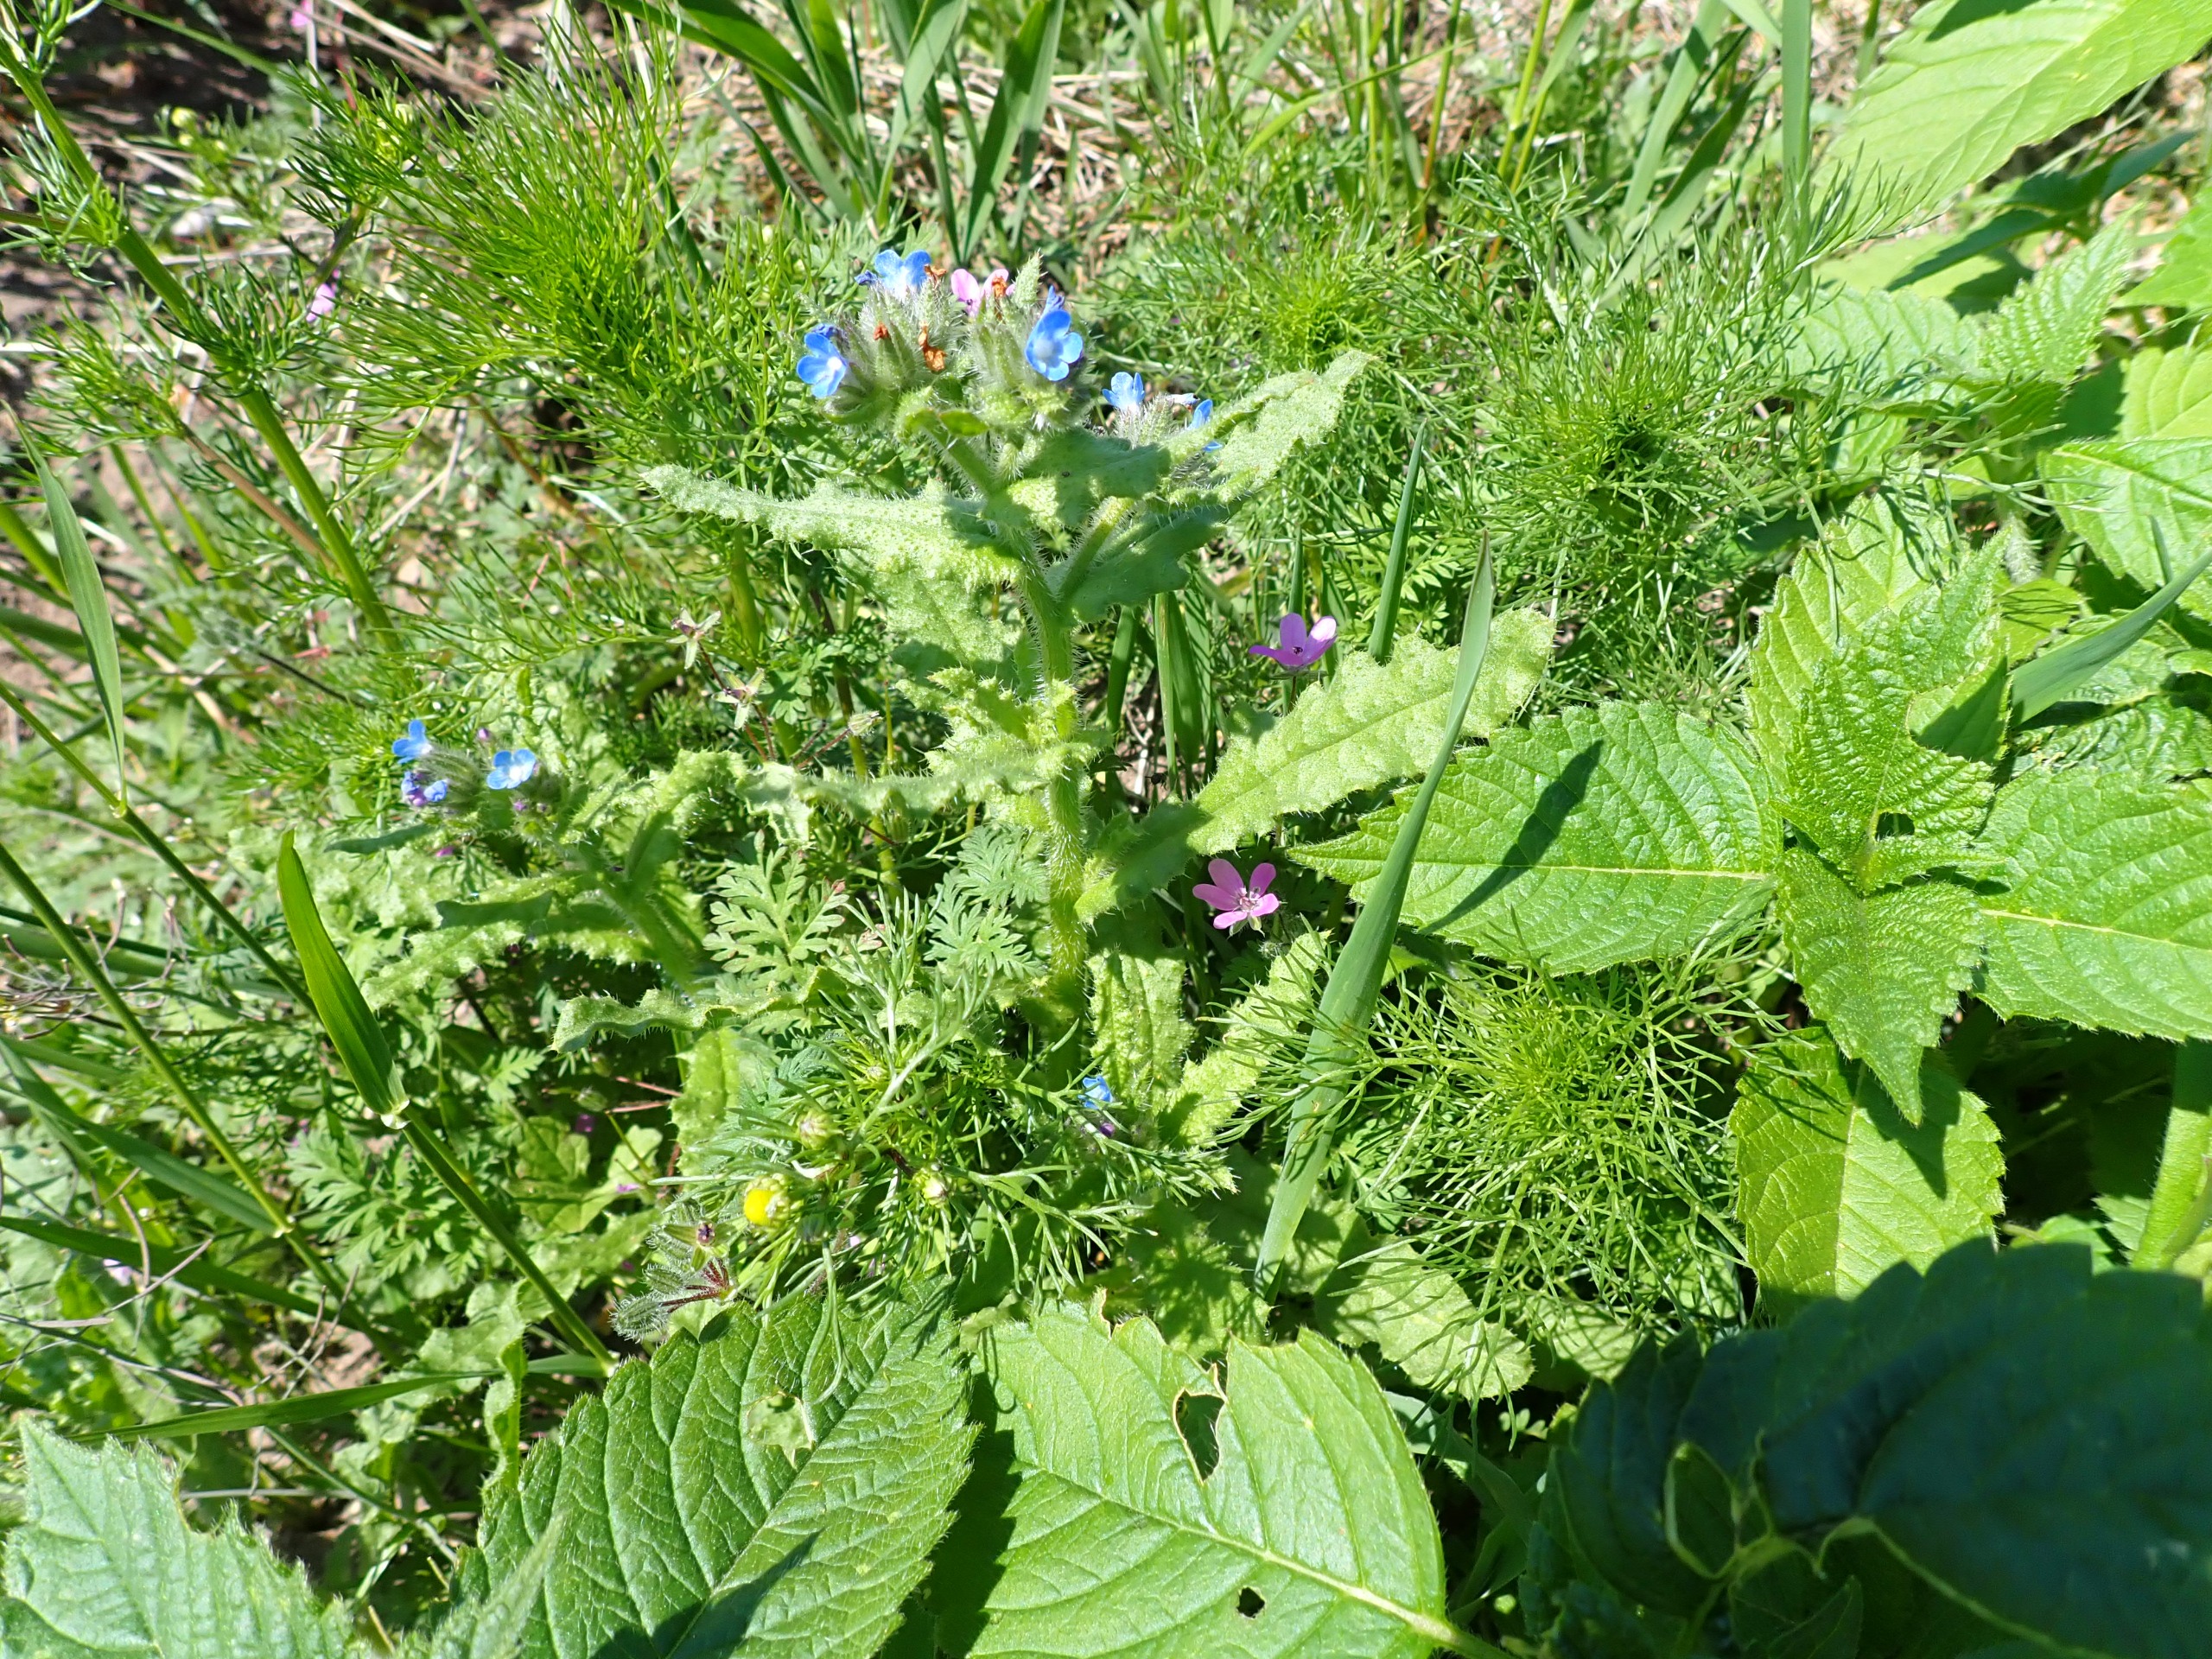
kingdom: Plantae
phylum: Tracheophyta
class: Magnoliopsida
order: Boraginales
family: Boraginaceae
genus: Lycopsis
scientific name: Lycopsis arvensis
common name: Krumhals
